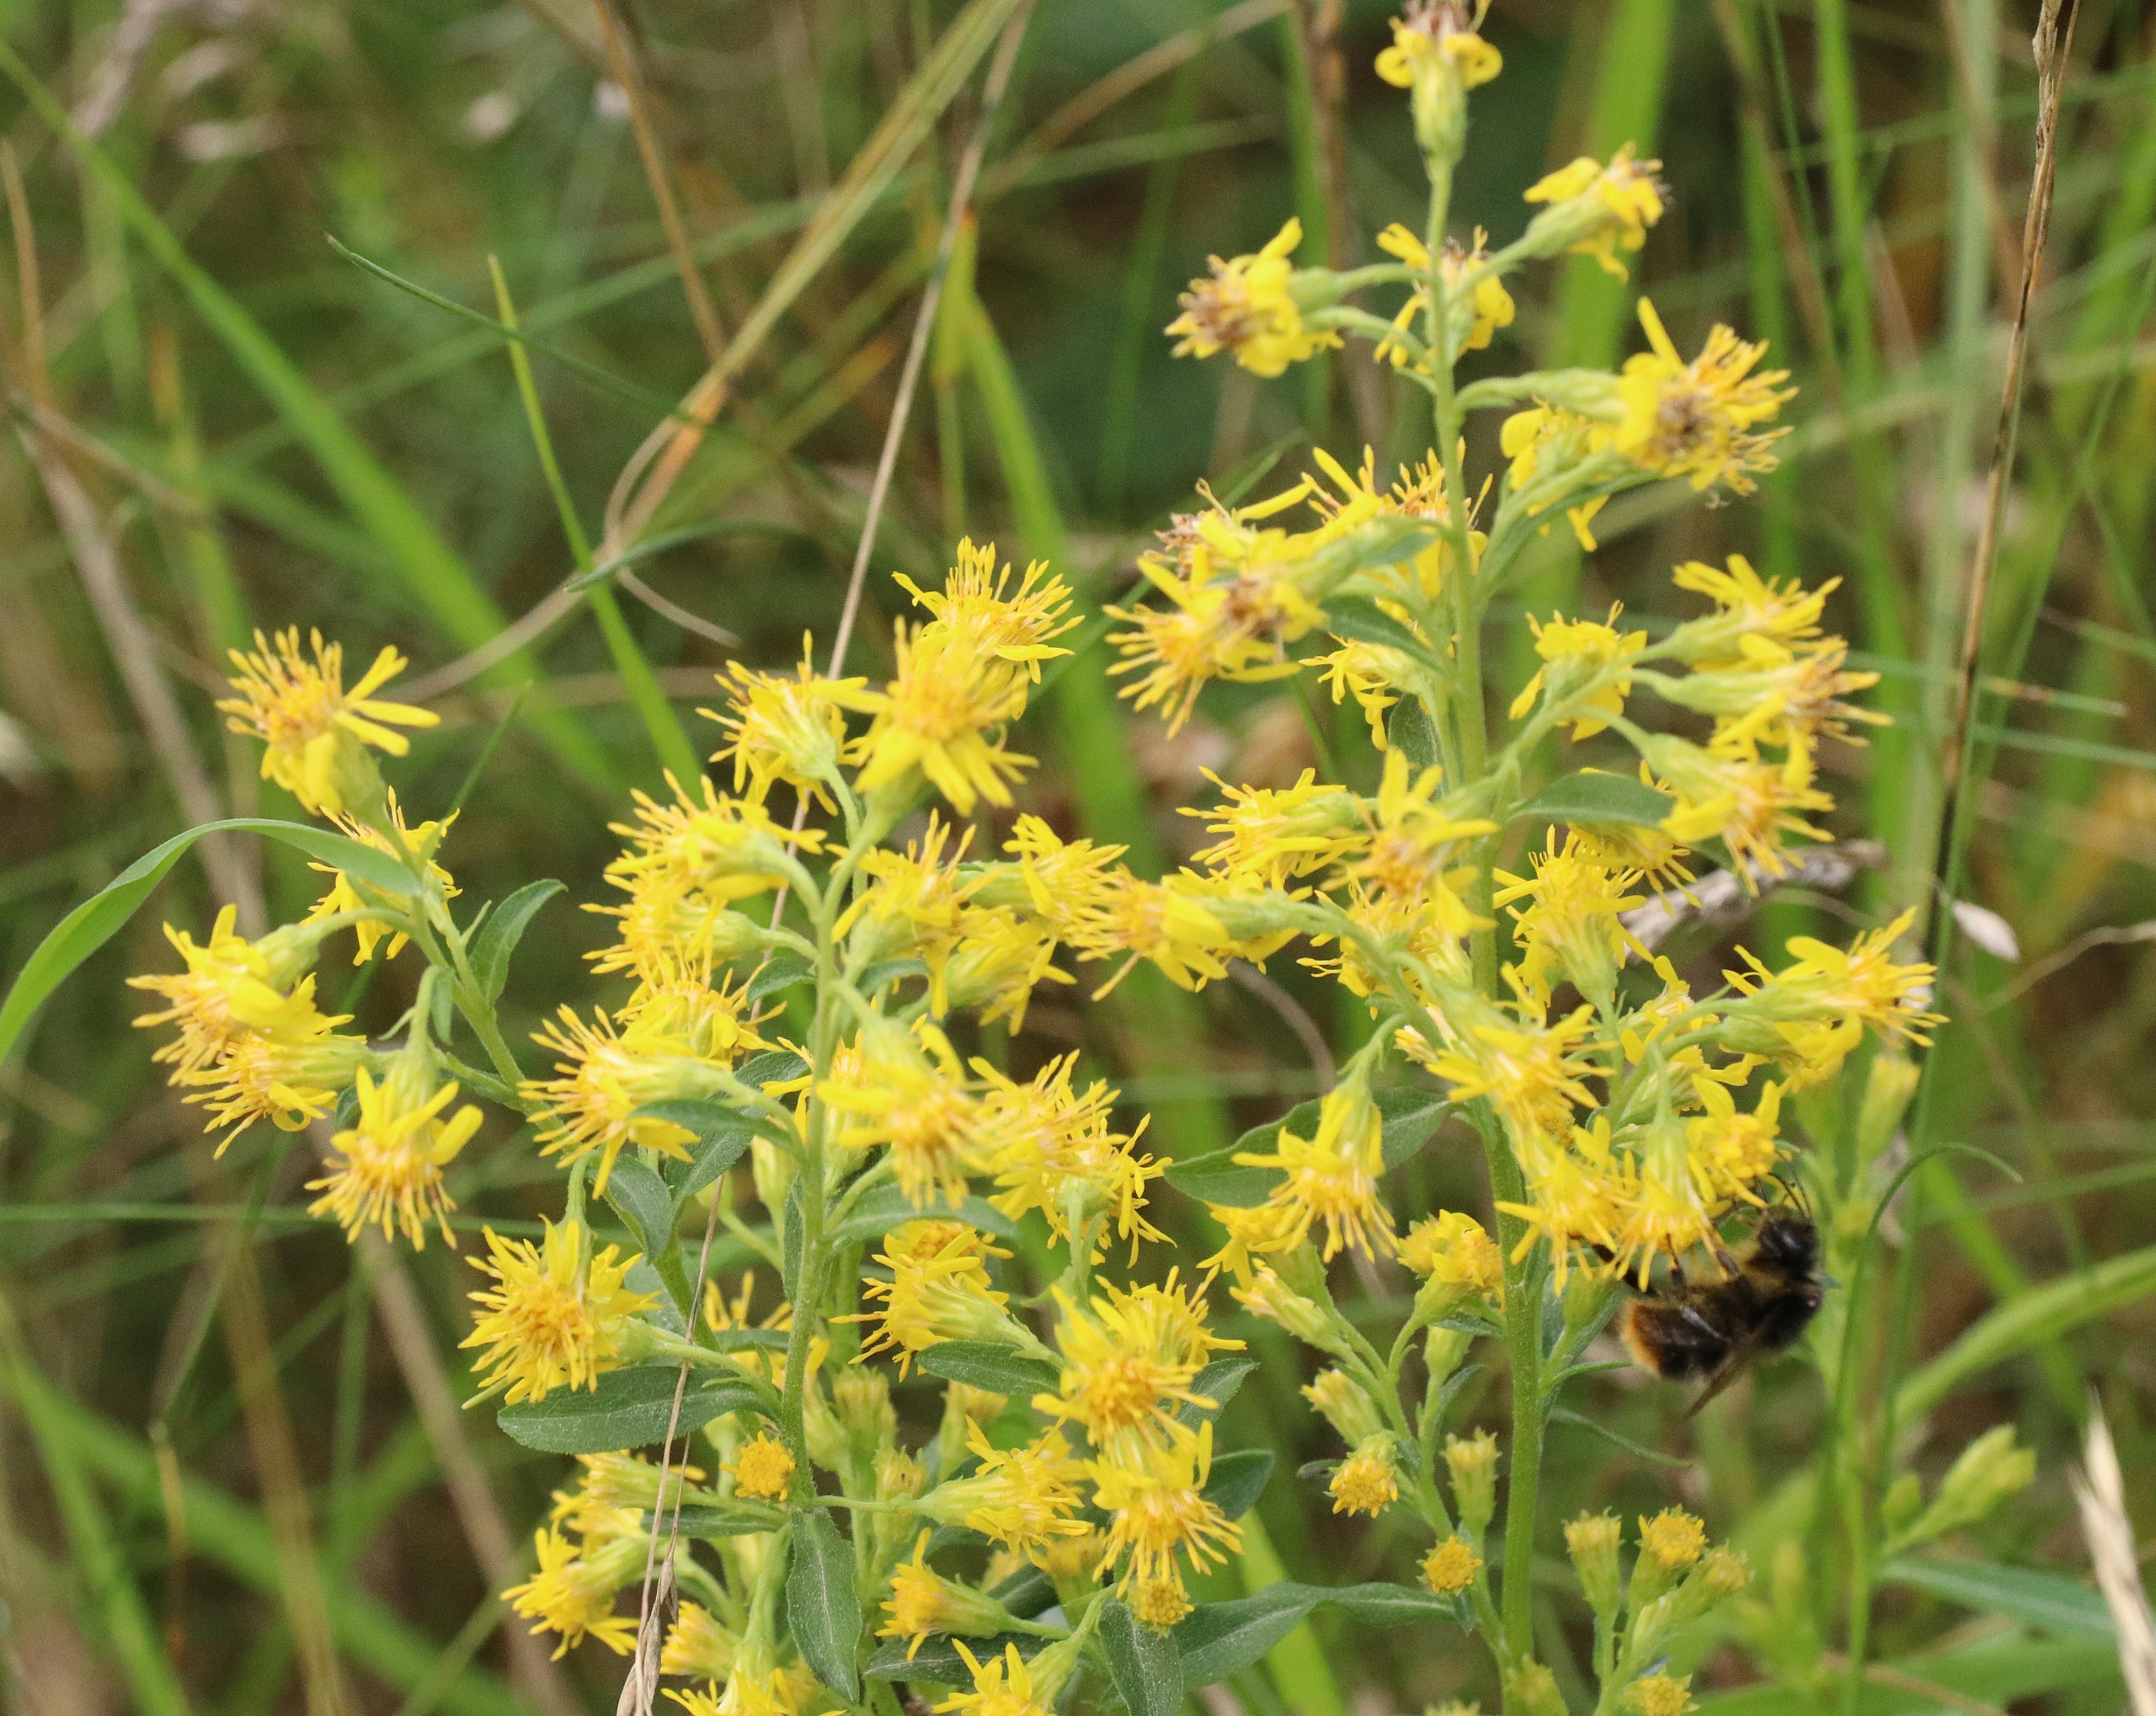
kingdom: Plantae
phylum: Tracheophyta
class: Magnoliopsida
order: Asterales
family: Asteraceae
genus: Solidago
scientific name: Solidago virgaurea
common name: Almindelig gyldenris
